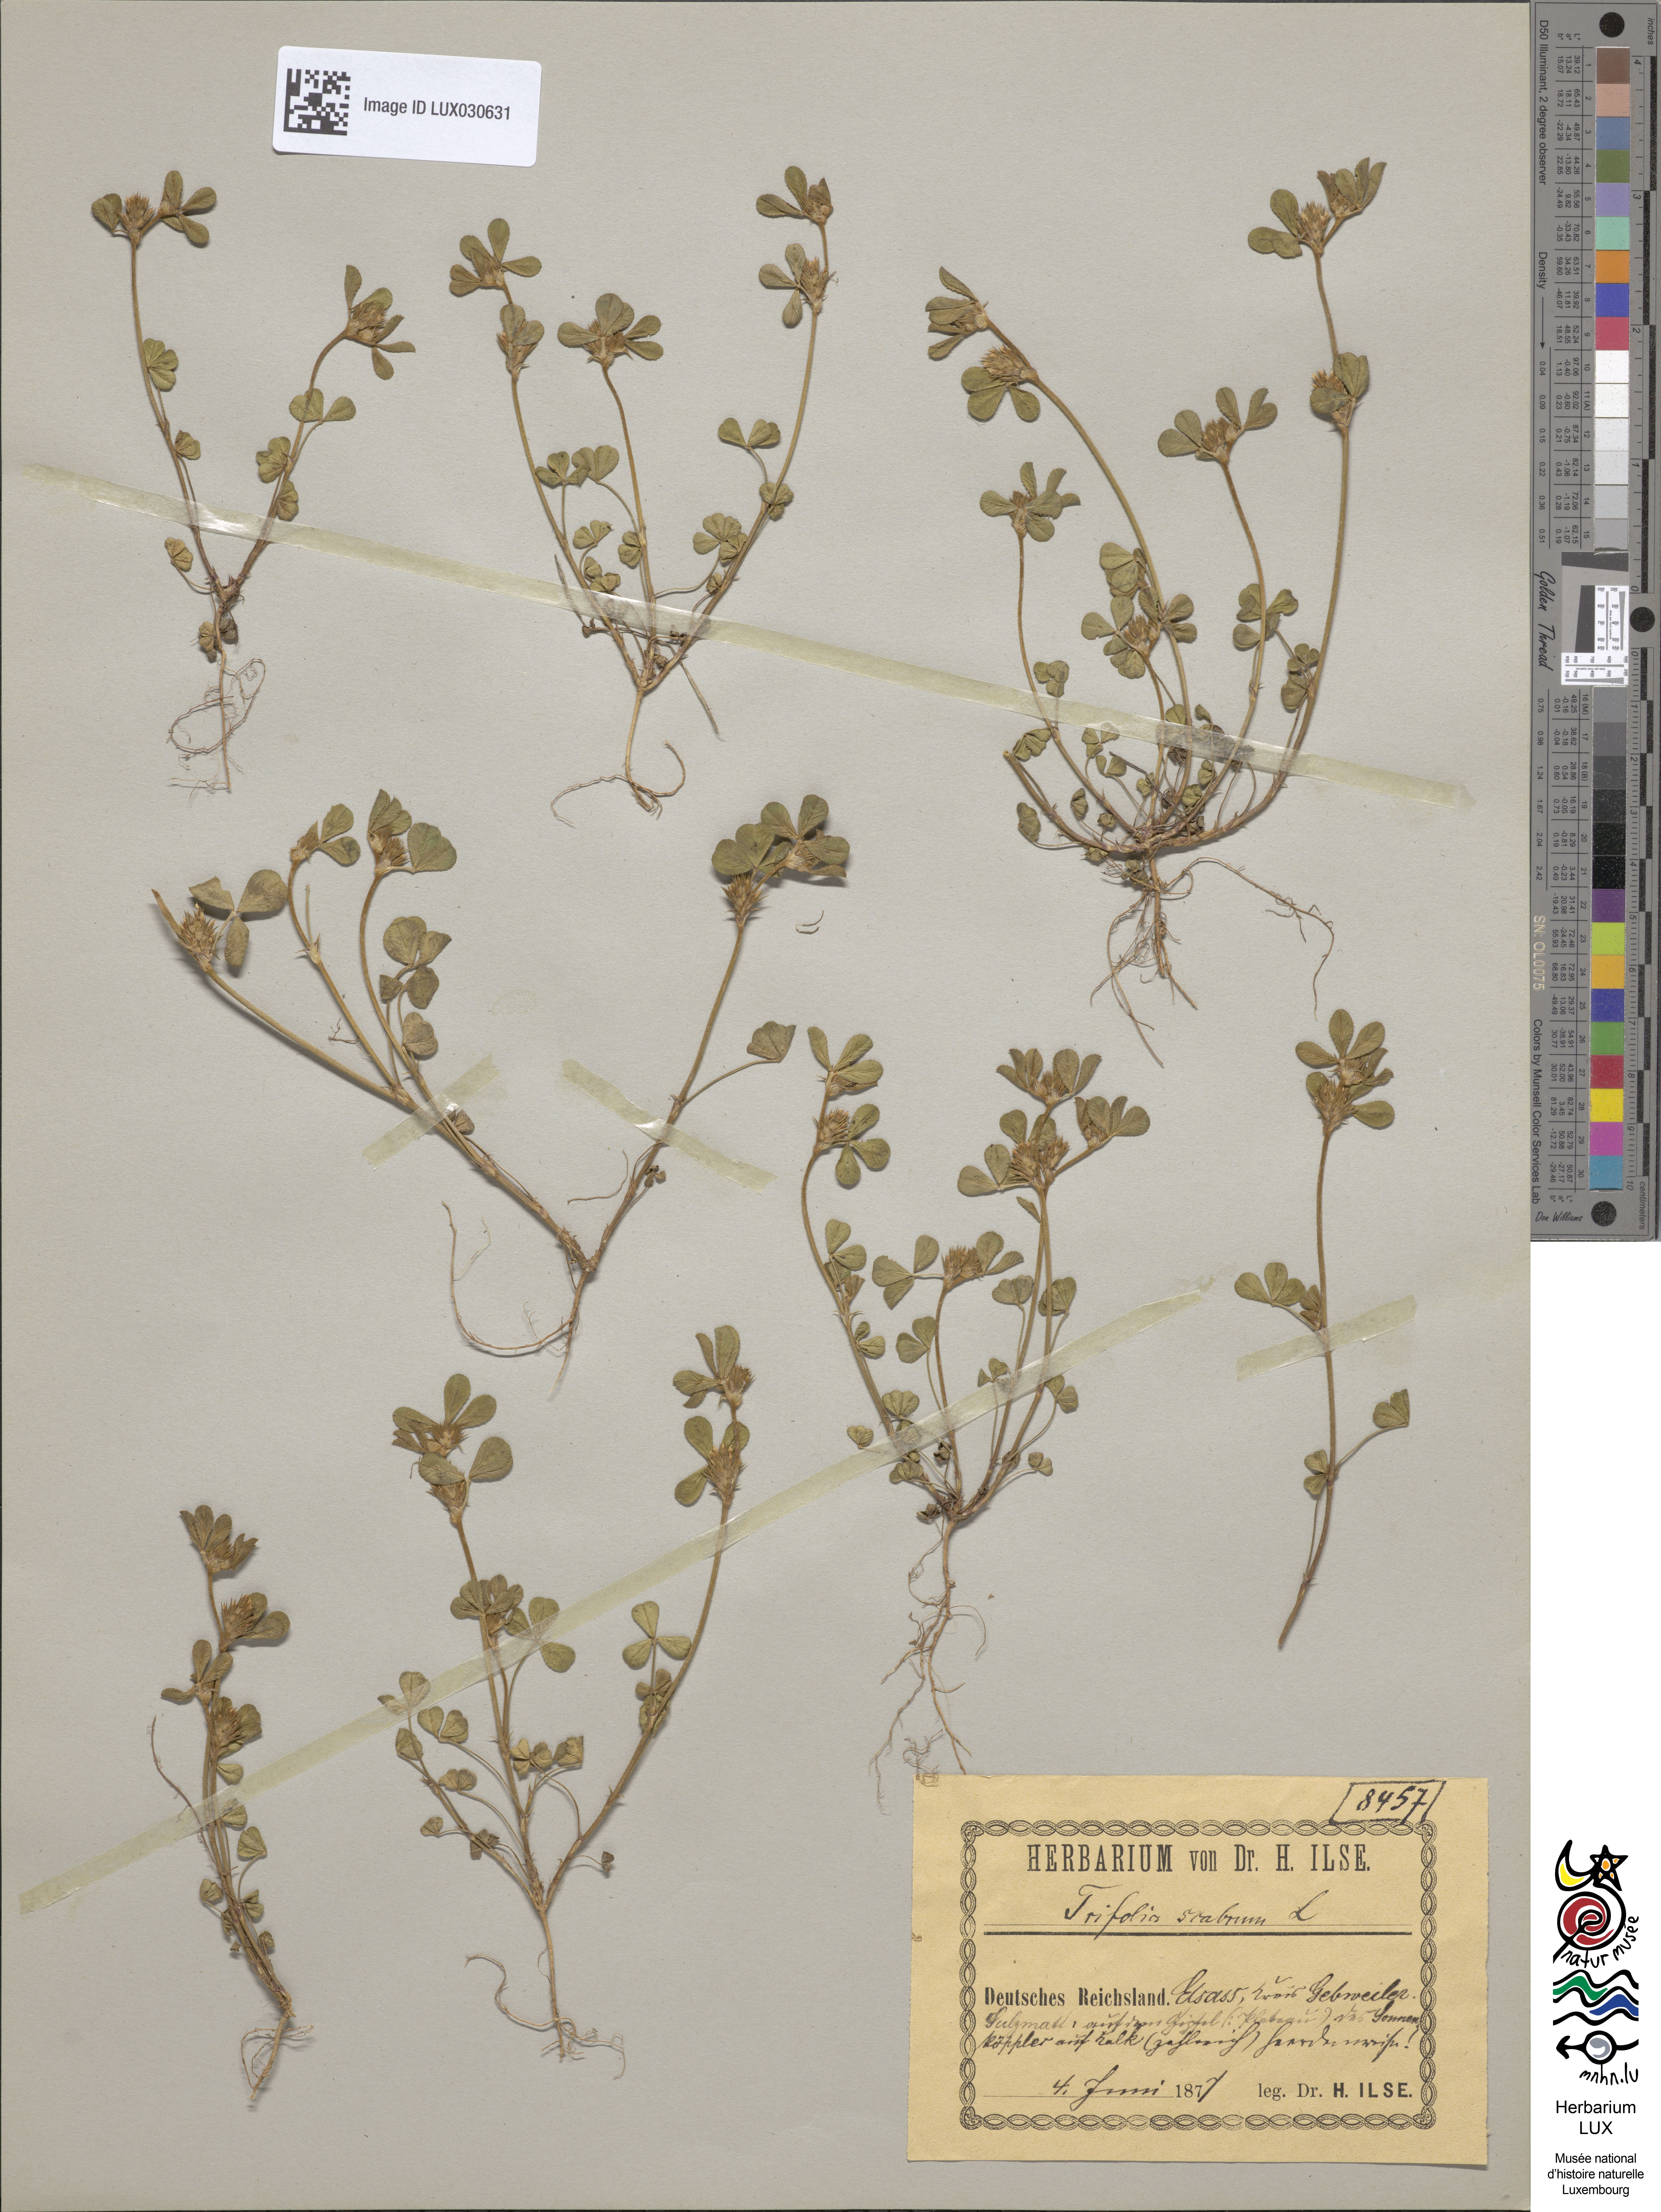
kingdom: Plantae
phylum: Tracheophyta
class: Magnoliopsida
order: Fabales
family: Fabaceae
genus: Trifolium
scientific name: Trifolium scabrum
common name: Rough clover
